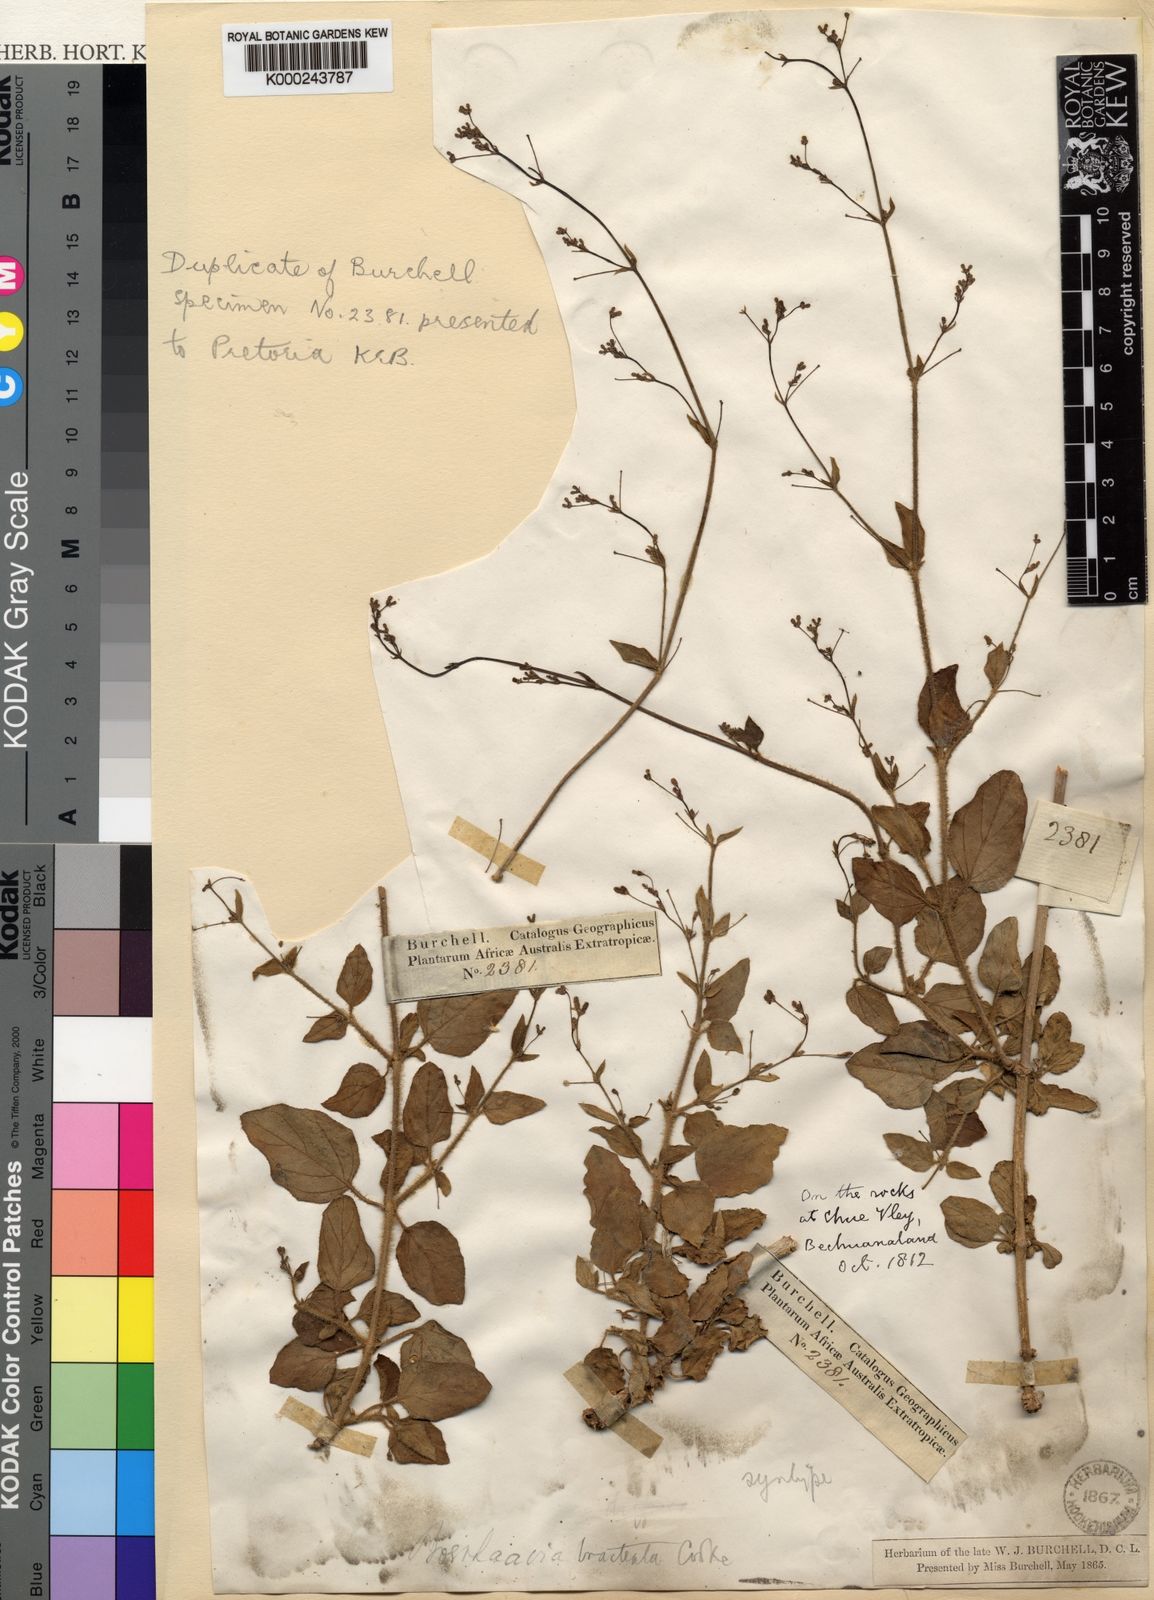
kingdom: Plantae
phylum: Tracheophyta
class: Magnoliopsida
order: Caryophyllales
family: Nyctaginaceae
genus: Boerhavia
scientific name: Boerhavia coccinea
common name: Scarlet spiderling
